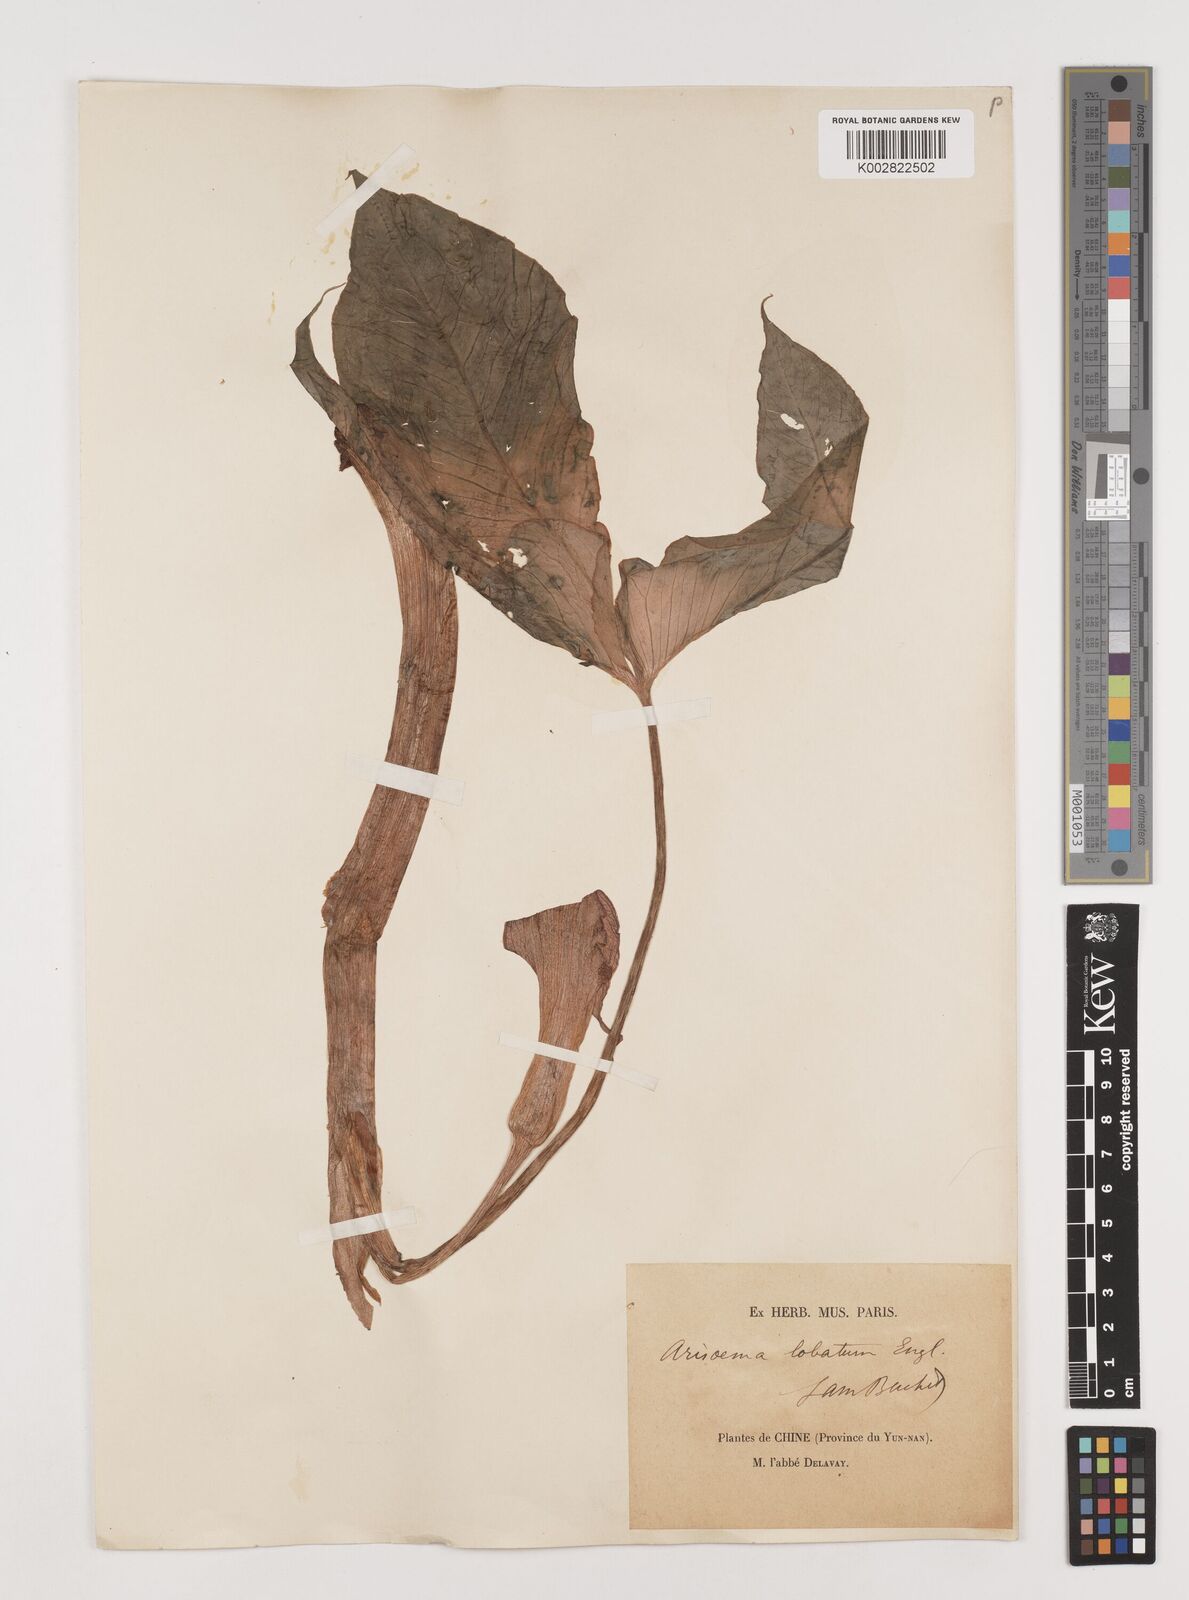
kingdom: Plantae
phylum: Tracheophyta
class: Liliopsida
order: Alismatales
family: Araceae
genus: Arisaema
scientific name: Arisaema lobatum
